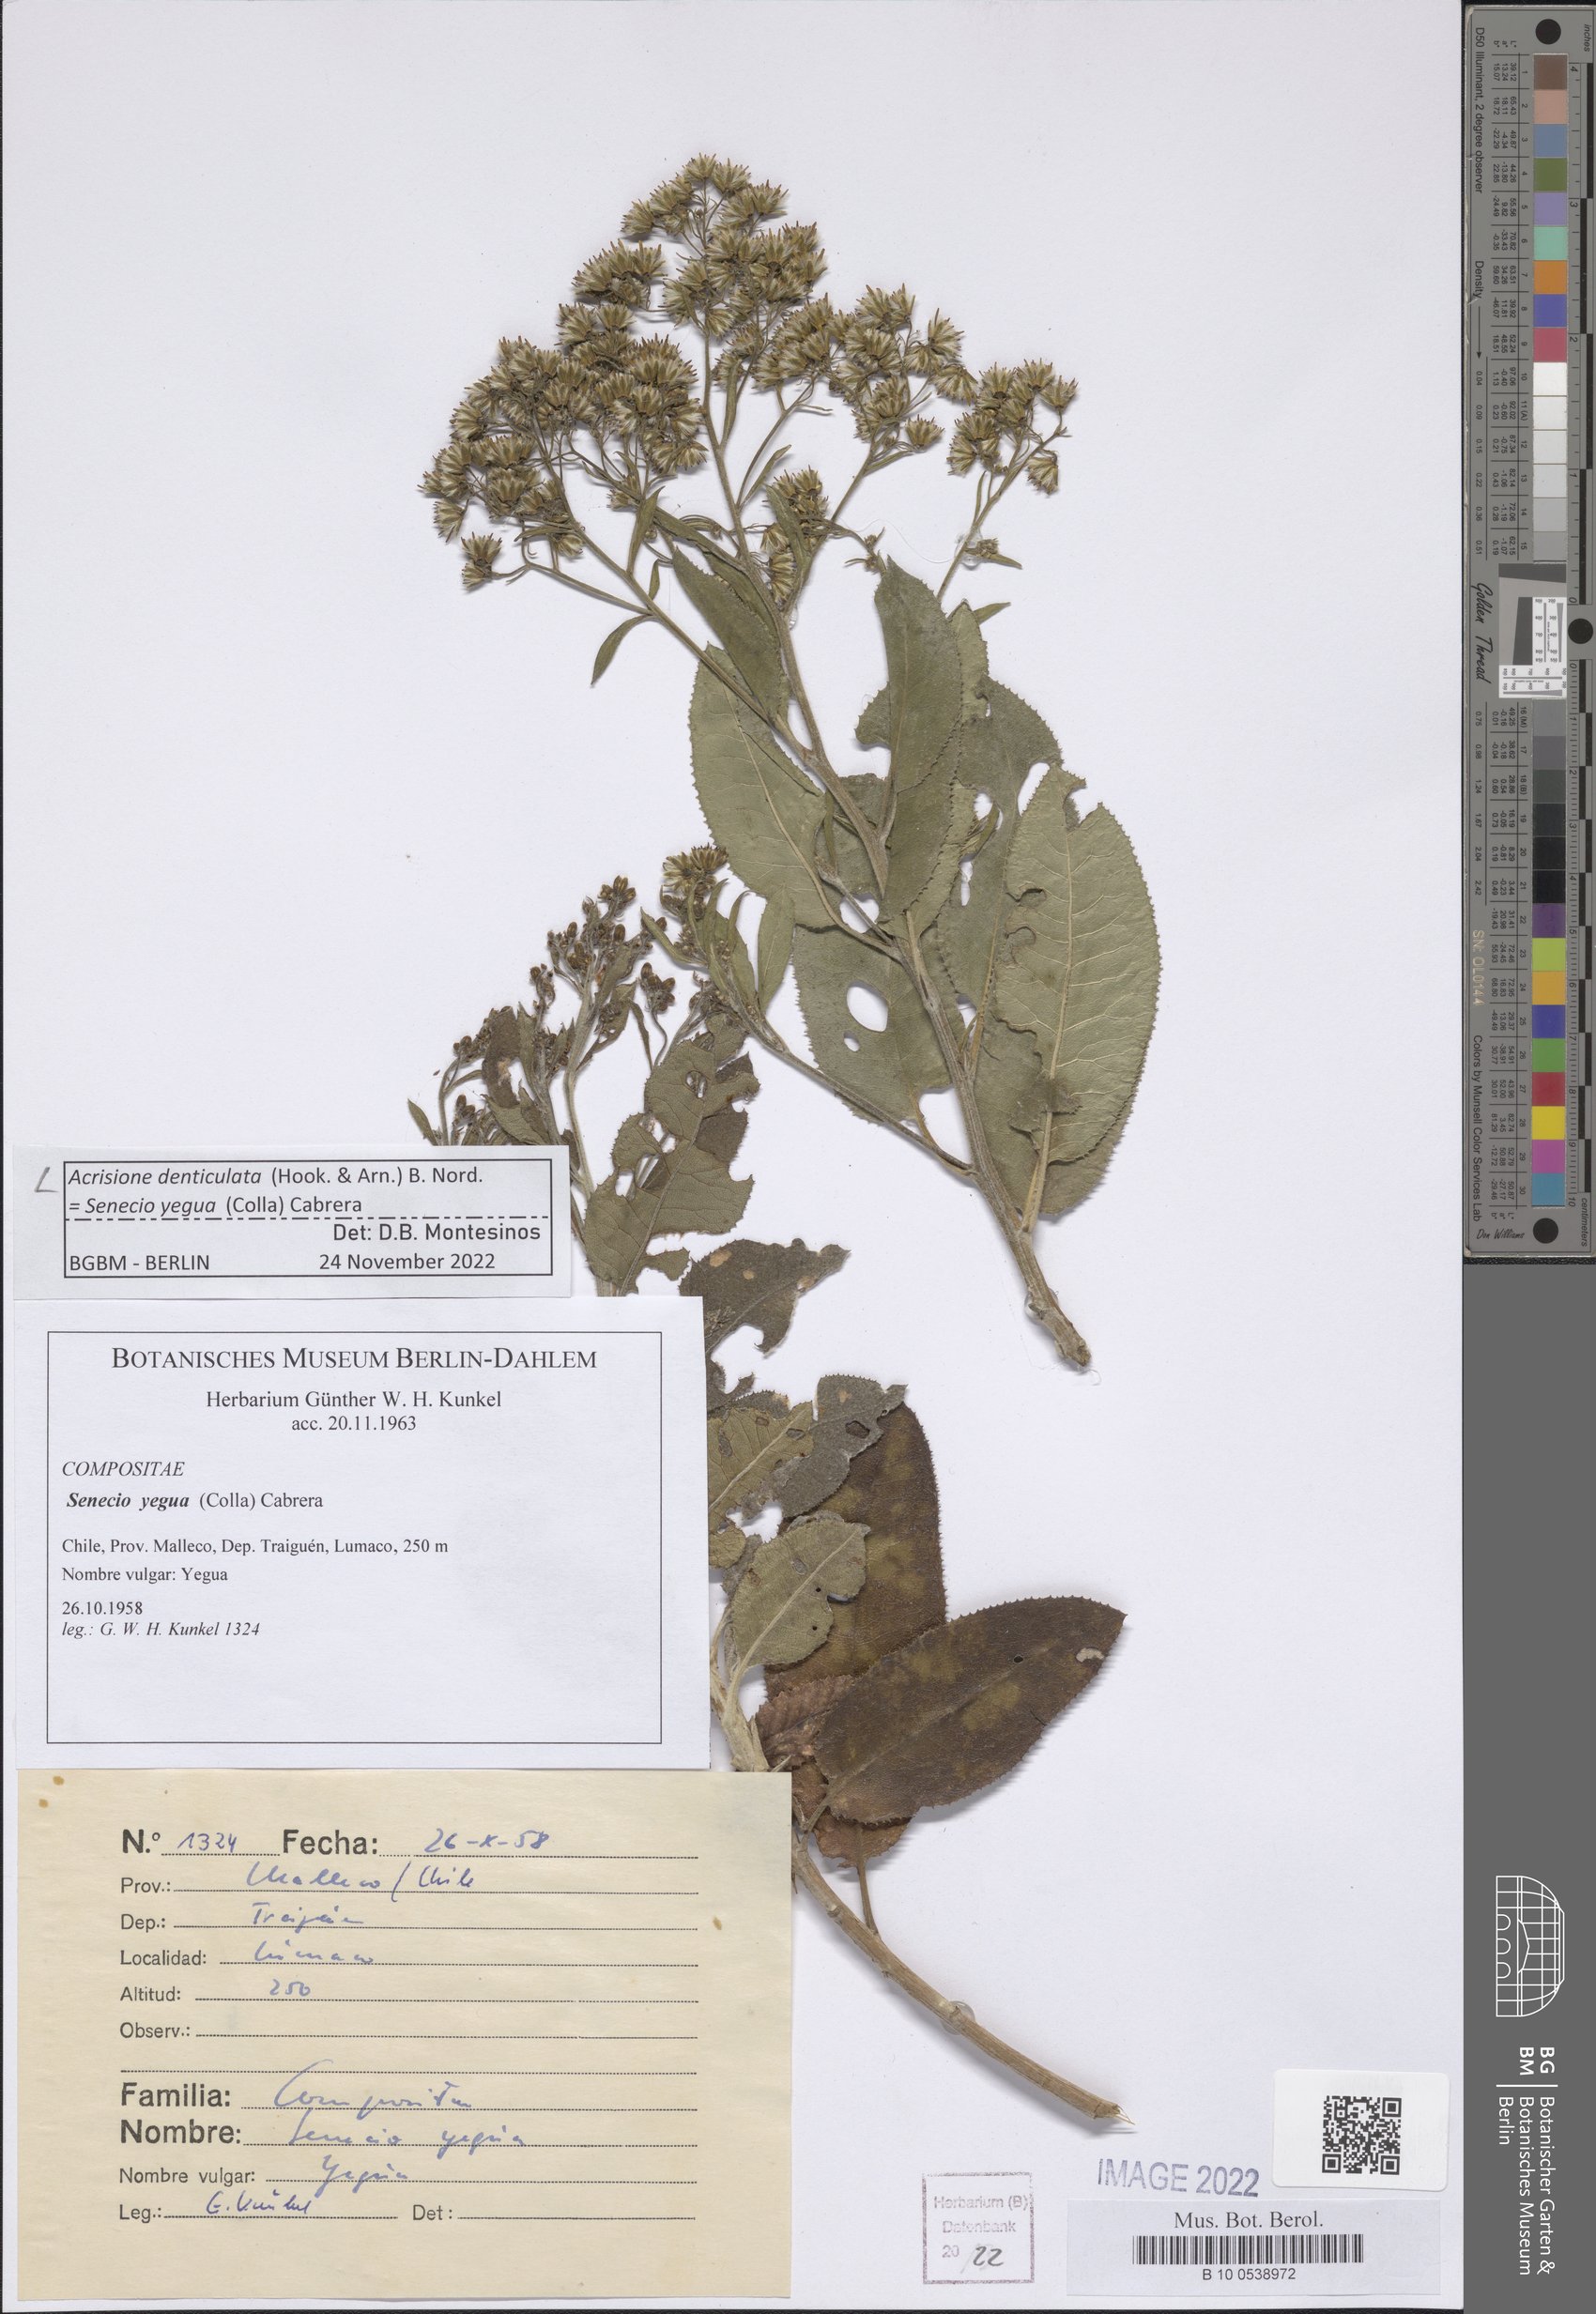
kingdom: Plantae
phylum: Tracheophyta
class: Magnoliopsida
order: Asterales
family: Asteraceae
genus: Acrisione
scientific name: Acrisione denticulata
